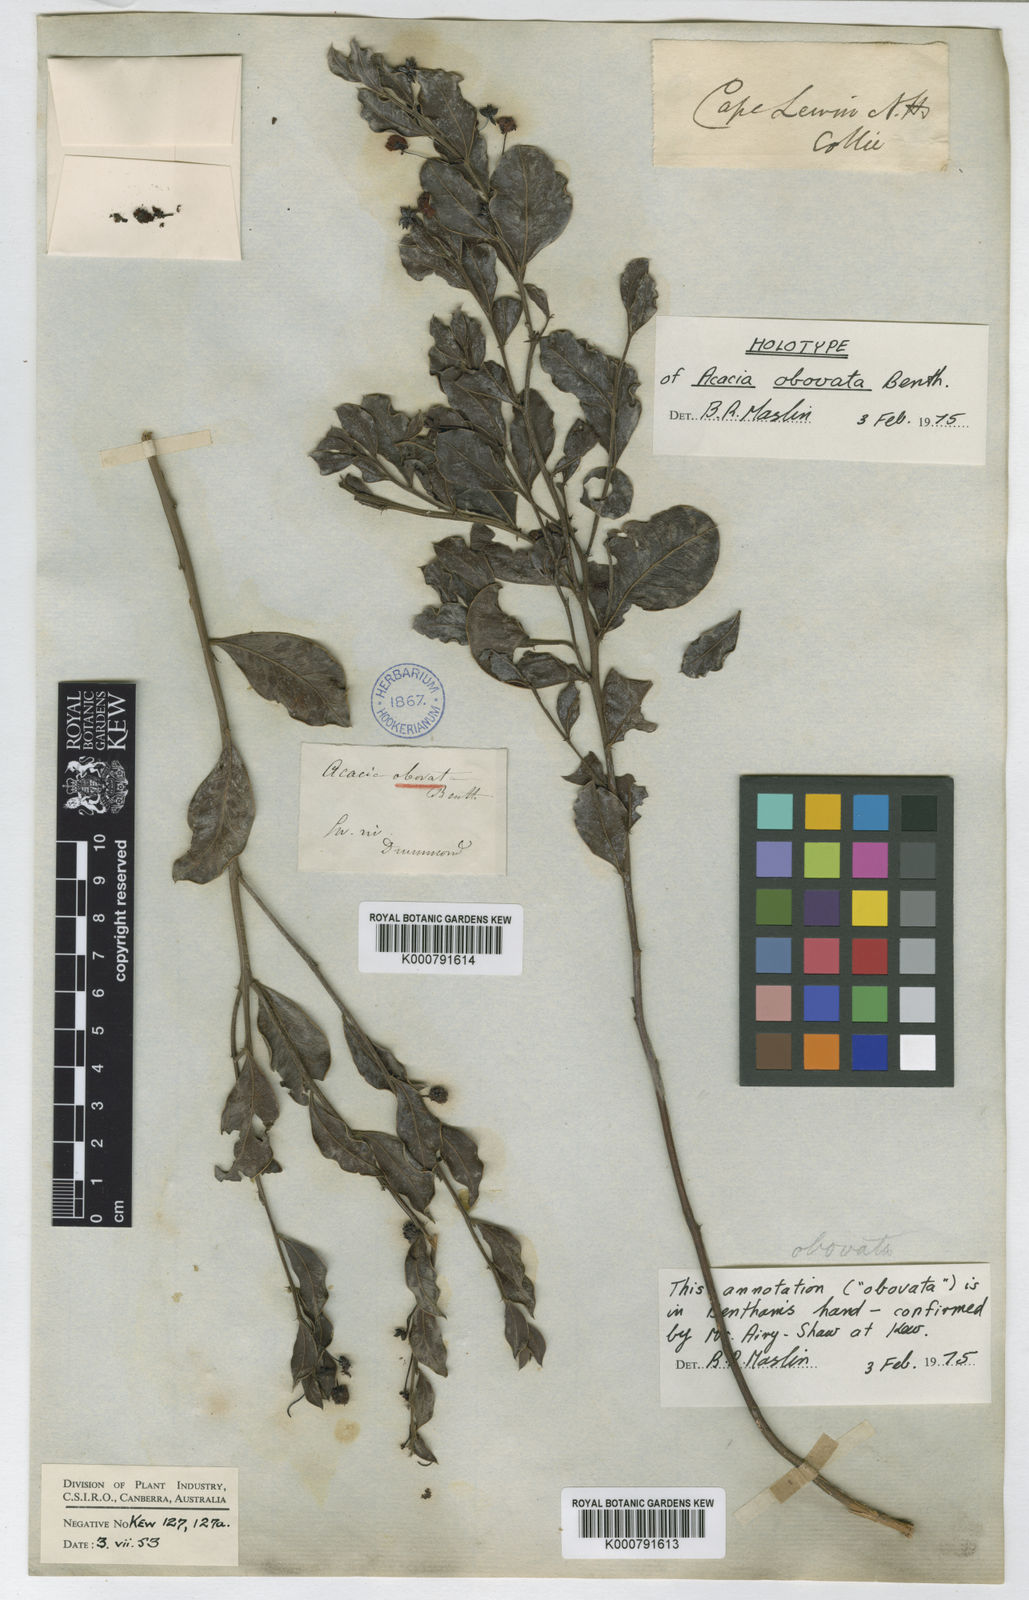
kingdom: Plantae
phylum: Tracheophyta
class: Magnoliopsida
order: Fabales
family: Fabaceae
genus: Acacia
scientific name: Acacia obovata
